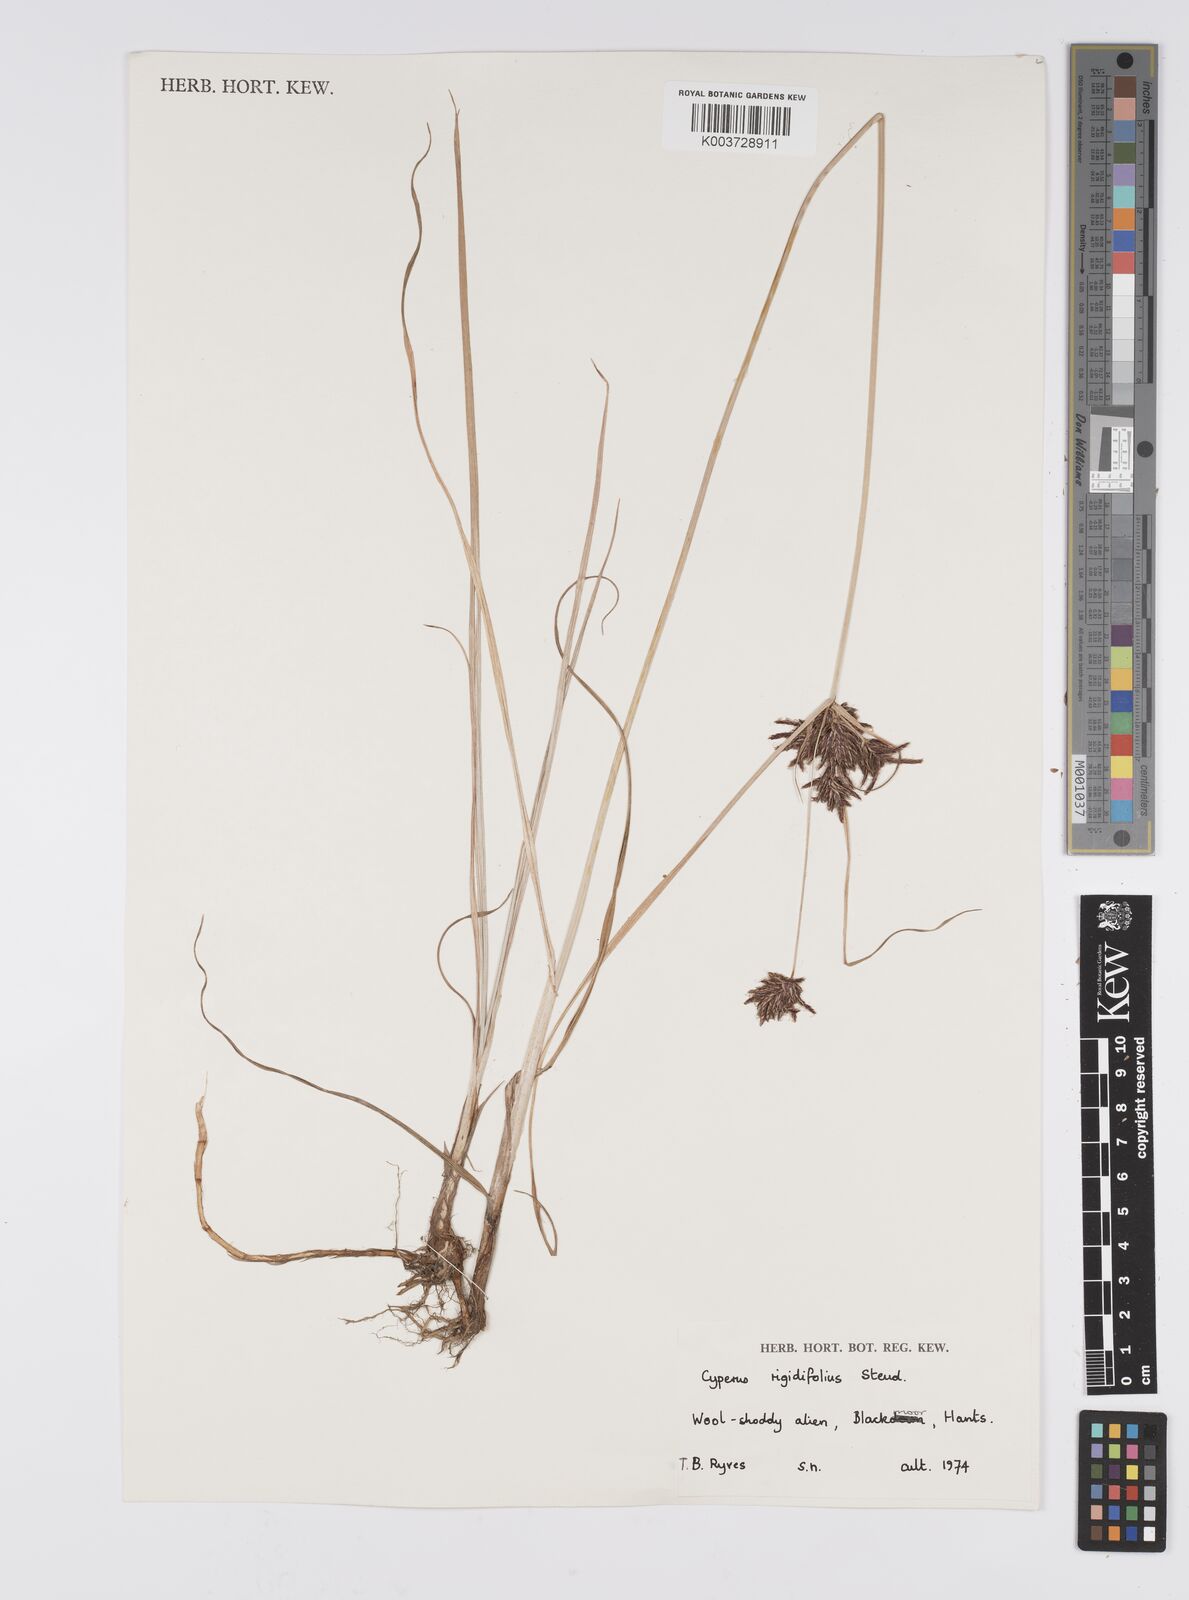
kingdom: Plantae
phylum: Tracheophyta
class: Liliopsida
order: Poales
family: Cyperaceae
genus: Cyperus
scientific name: Cyperus rigidifolius
